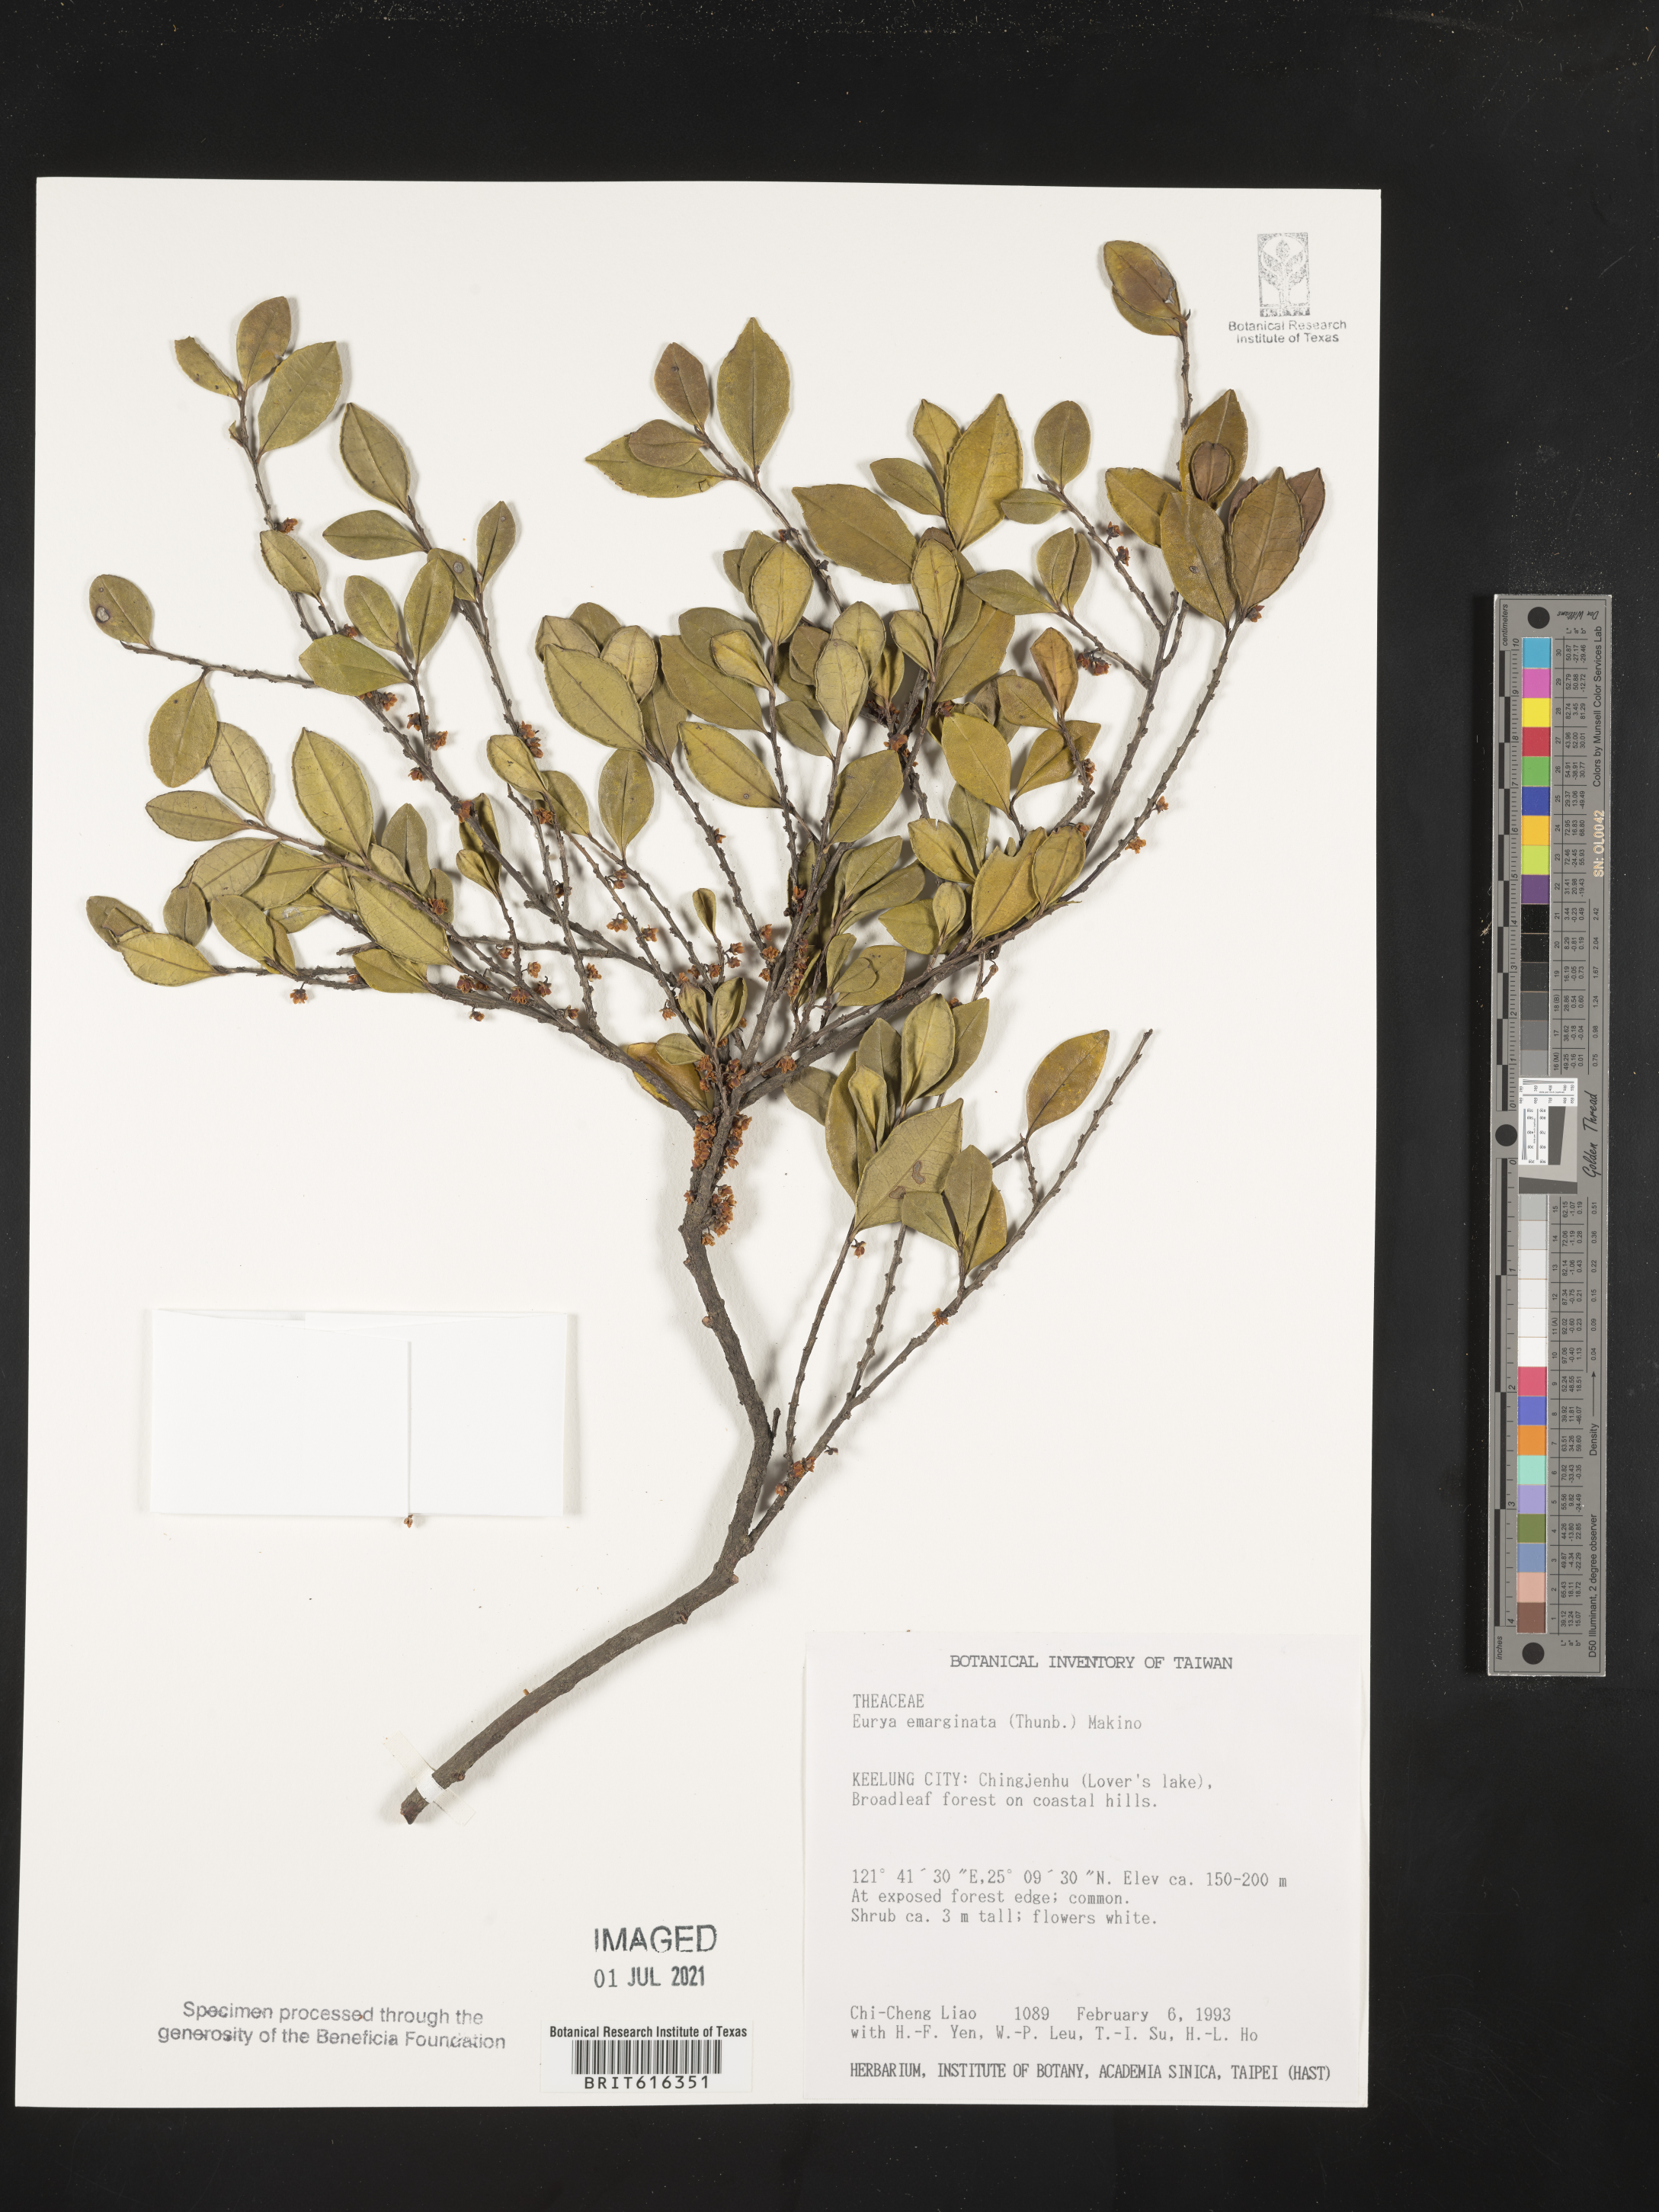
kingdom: Plantae
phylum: Tracheophyta
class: Magnoliopsida
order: Ericales
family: Pentaphylacaceae
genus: Eurya
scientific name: Eurya emarginata
